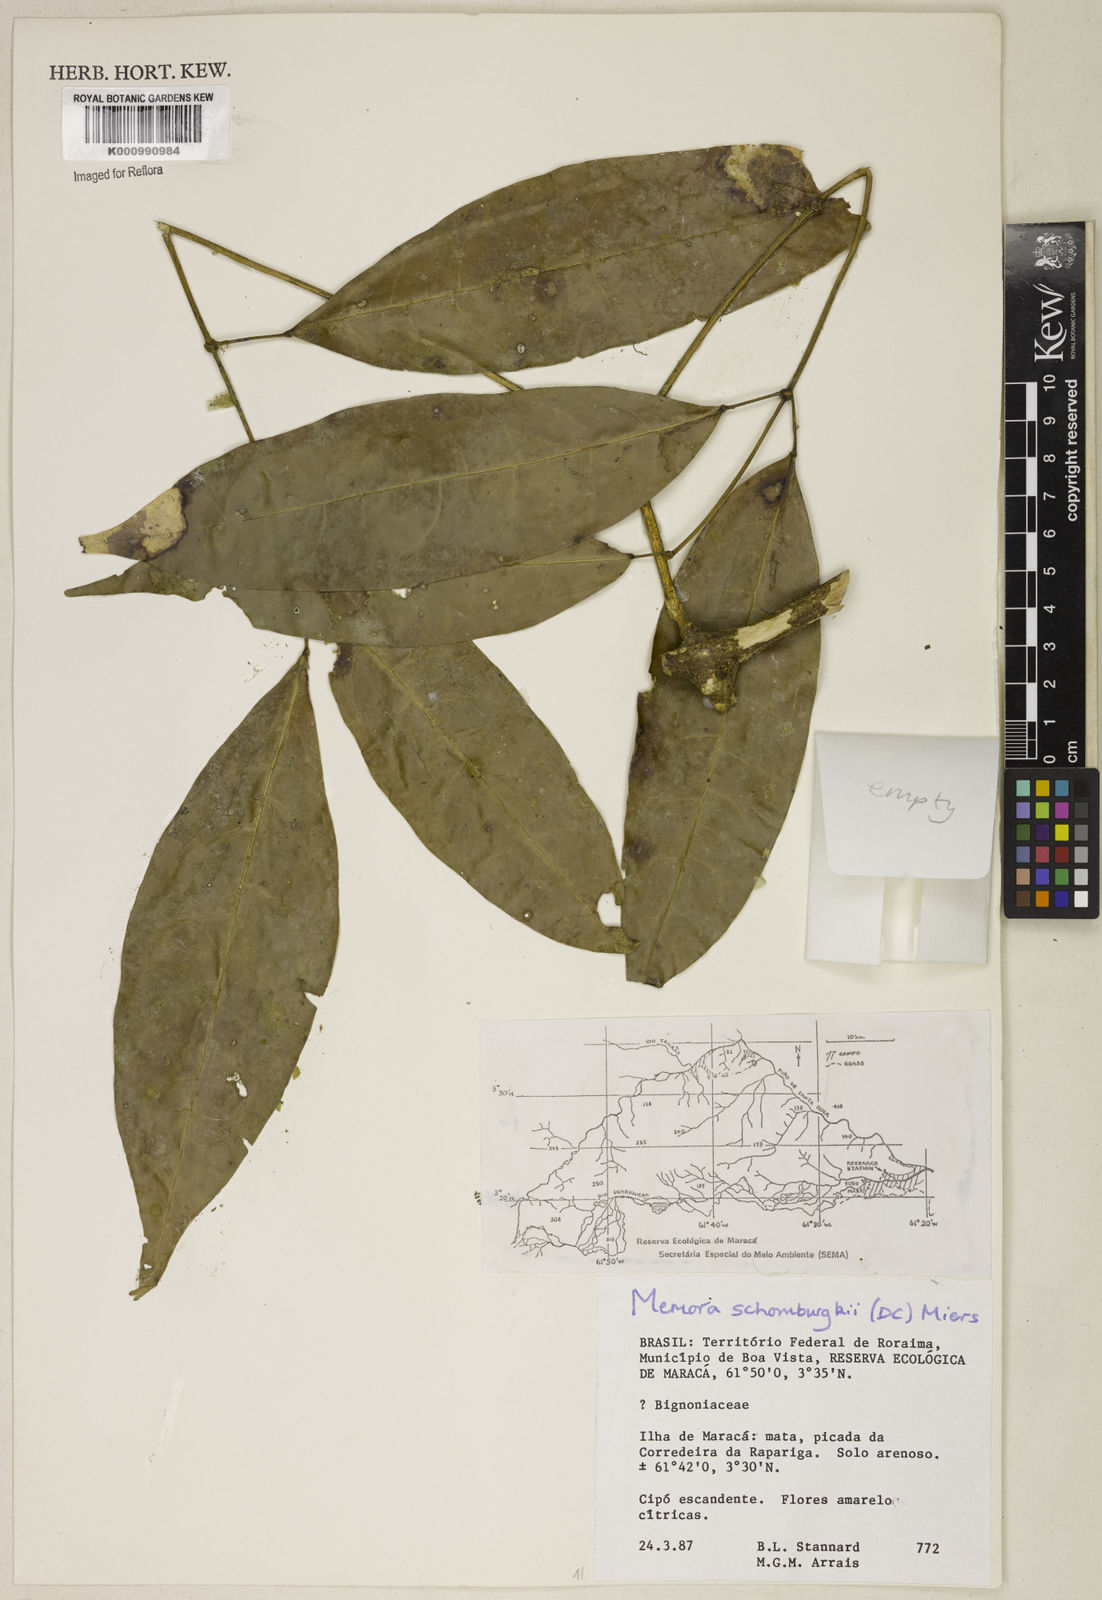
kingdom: Plantae
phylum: Tracheophyta
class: Magnoliopsida
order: Lamiales
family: Bignoniaceae
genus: Adenocalymma
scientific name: Adenocalymma schomburgkii
